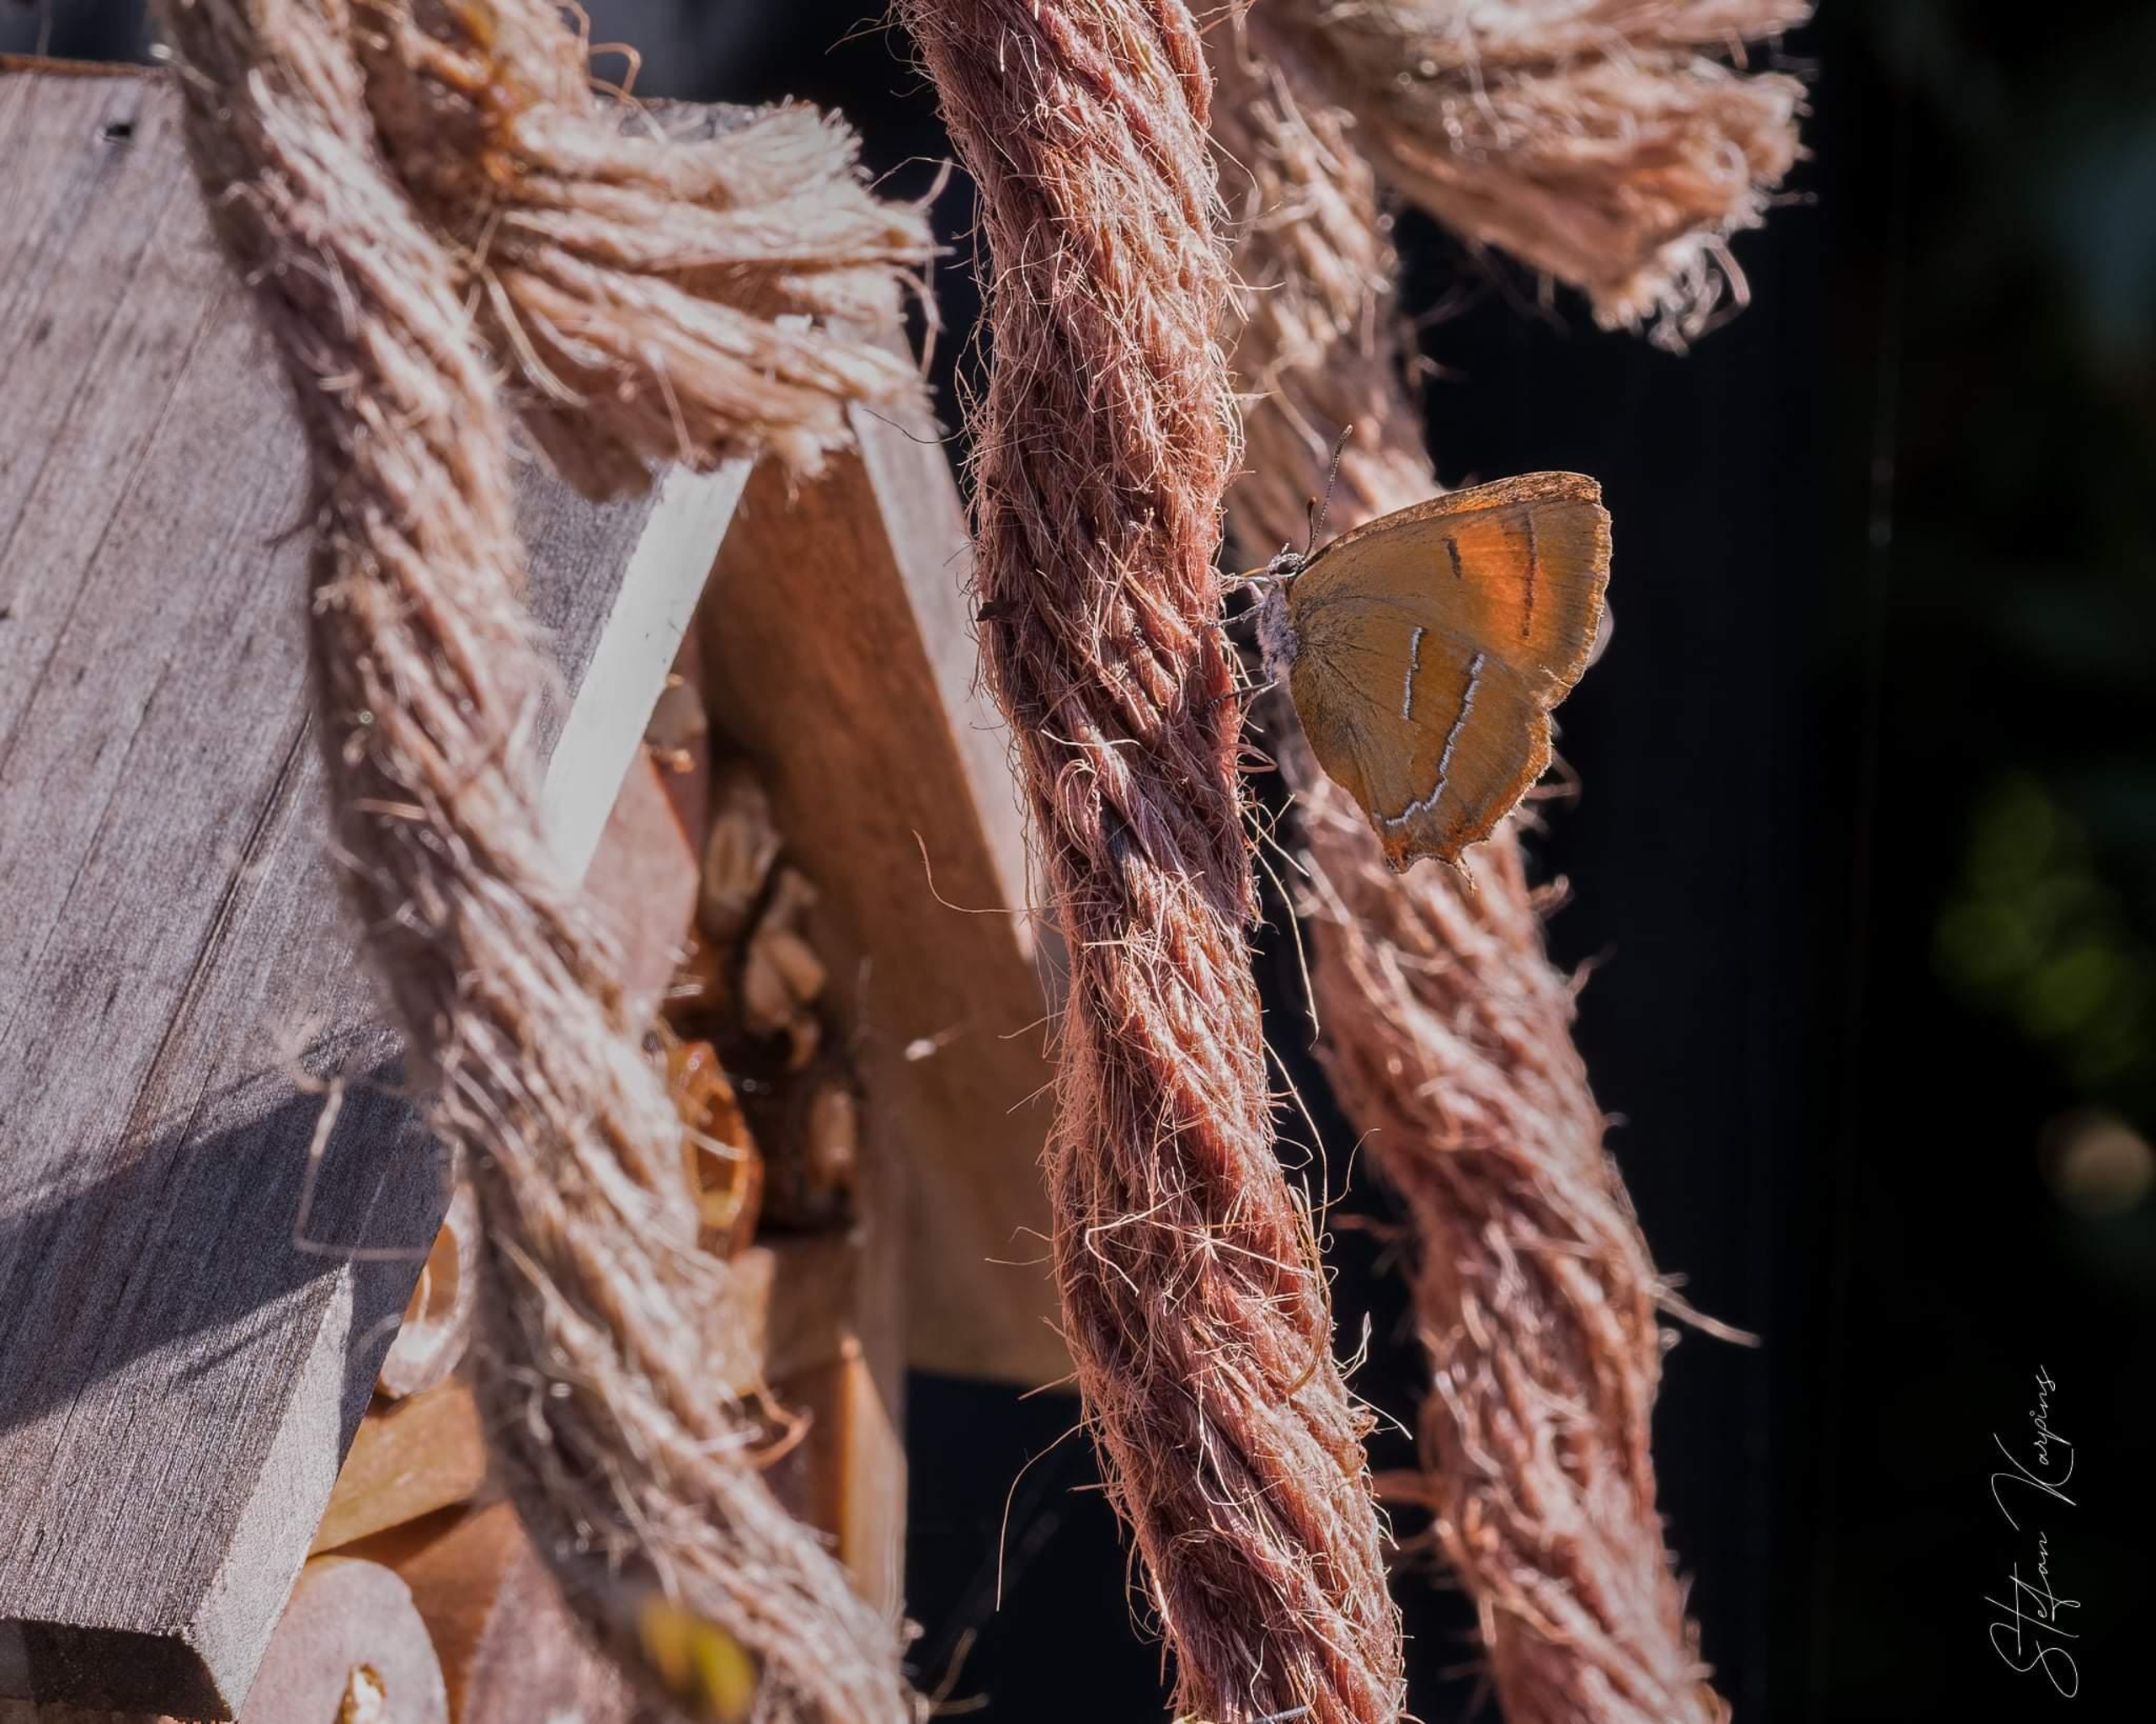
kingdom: Animalia
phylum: Arthropoda
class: Insecta
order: Lepidoptera
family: Lycaenidae
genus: Thecla
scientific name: Thecla betulae
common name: Guldhale
